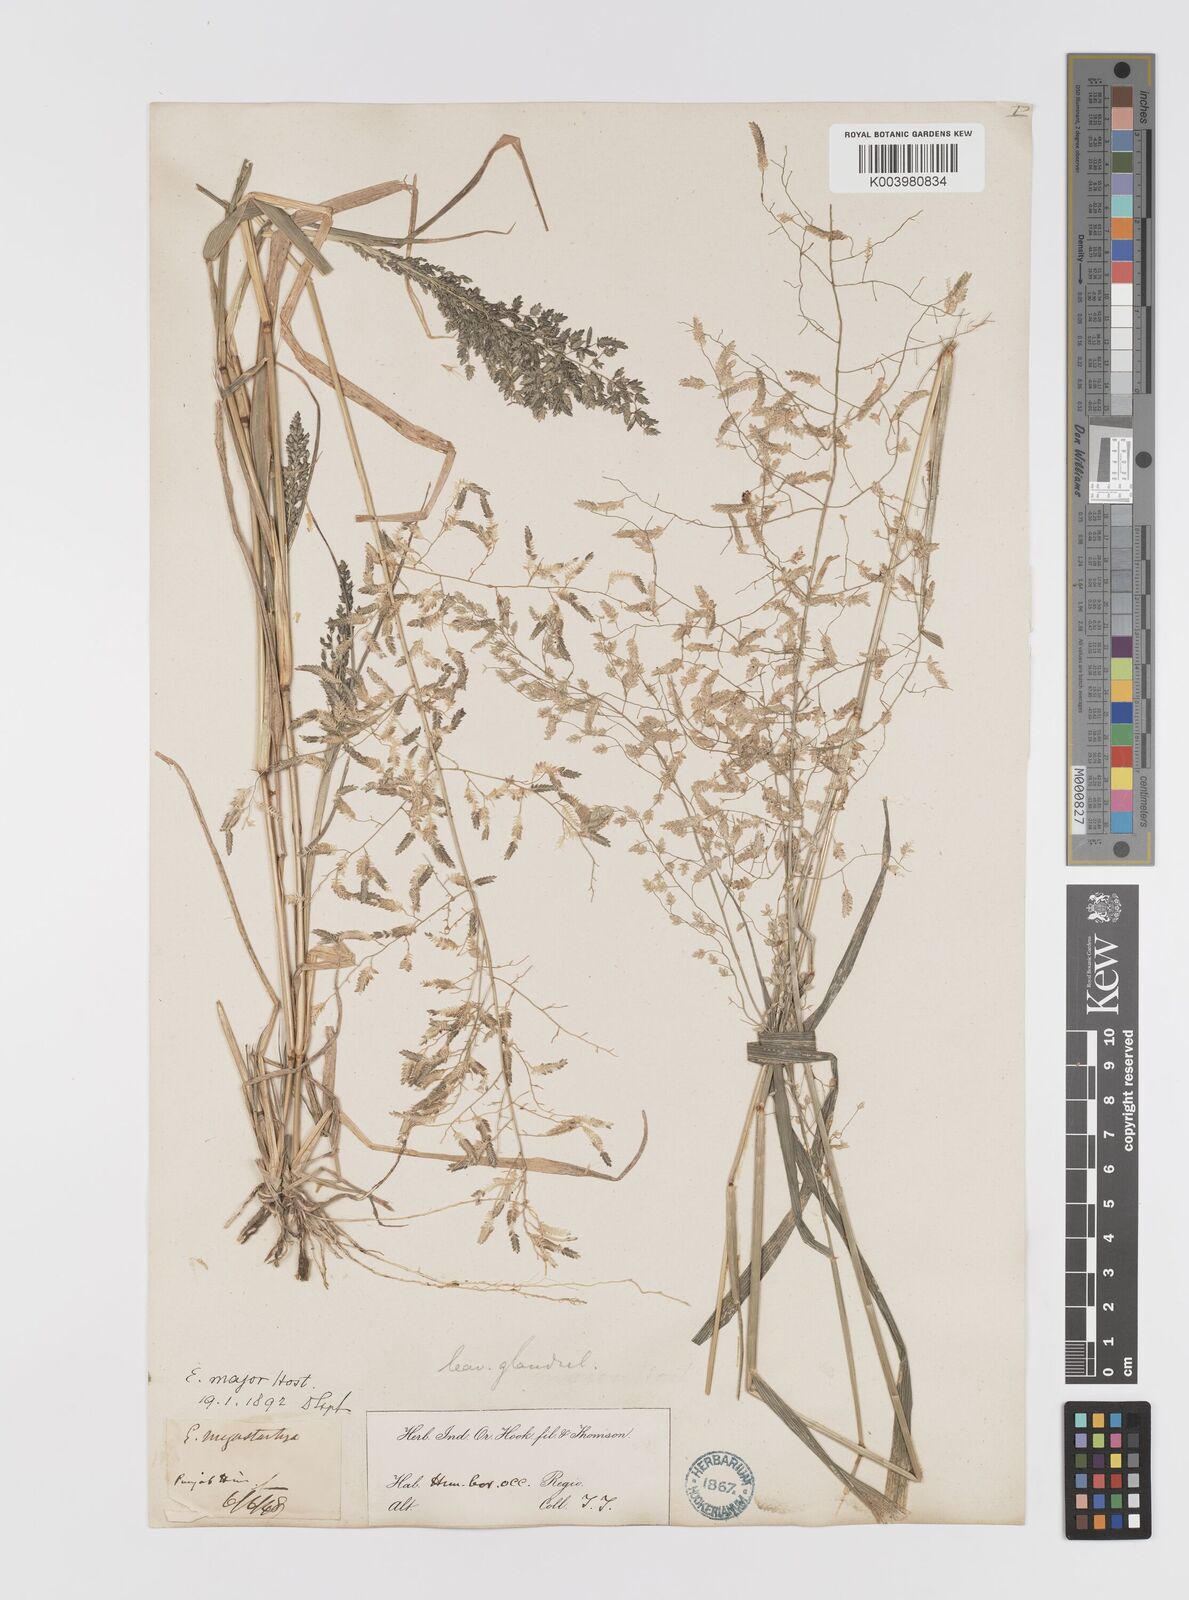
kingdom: Plantae
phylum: Tracheophyta
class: Liliopsida
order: Poales
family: Poaceae
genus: Eragrostis
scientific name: Eragrostis cilianensis
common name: Stinkgrass
